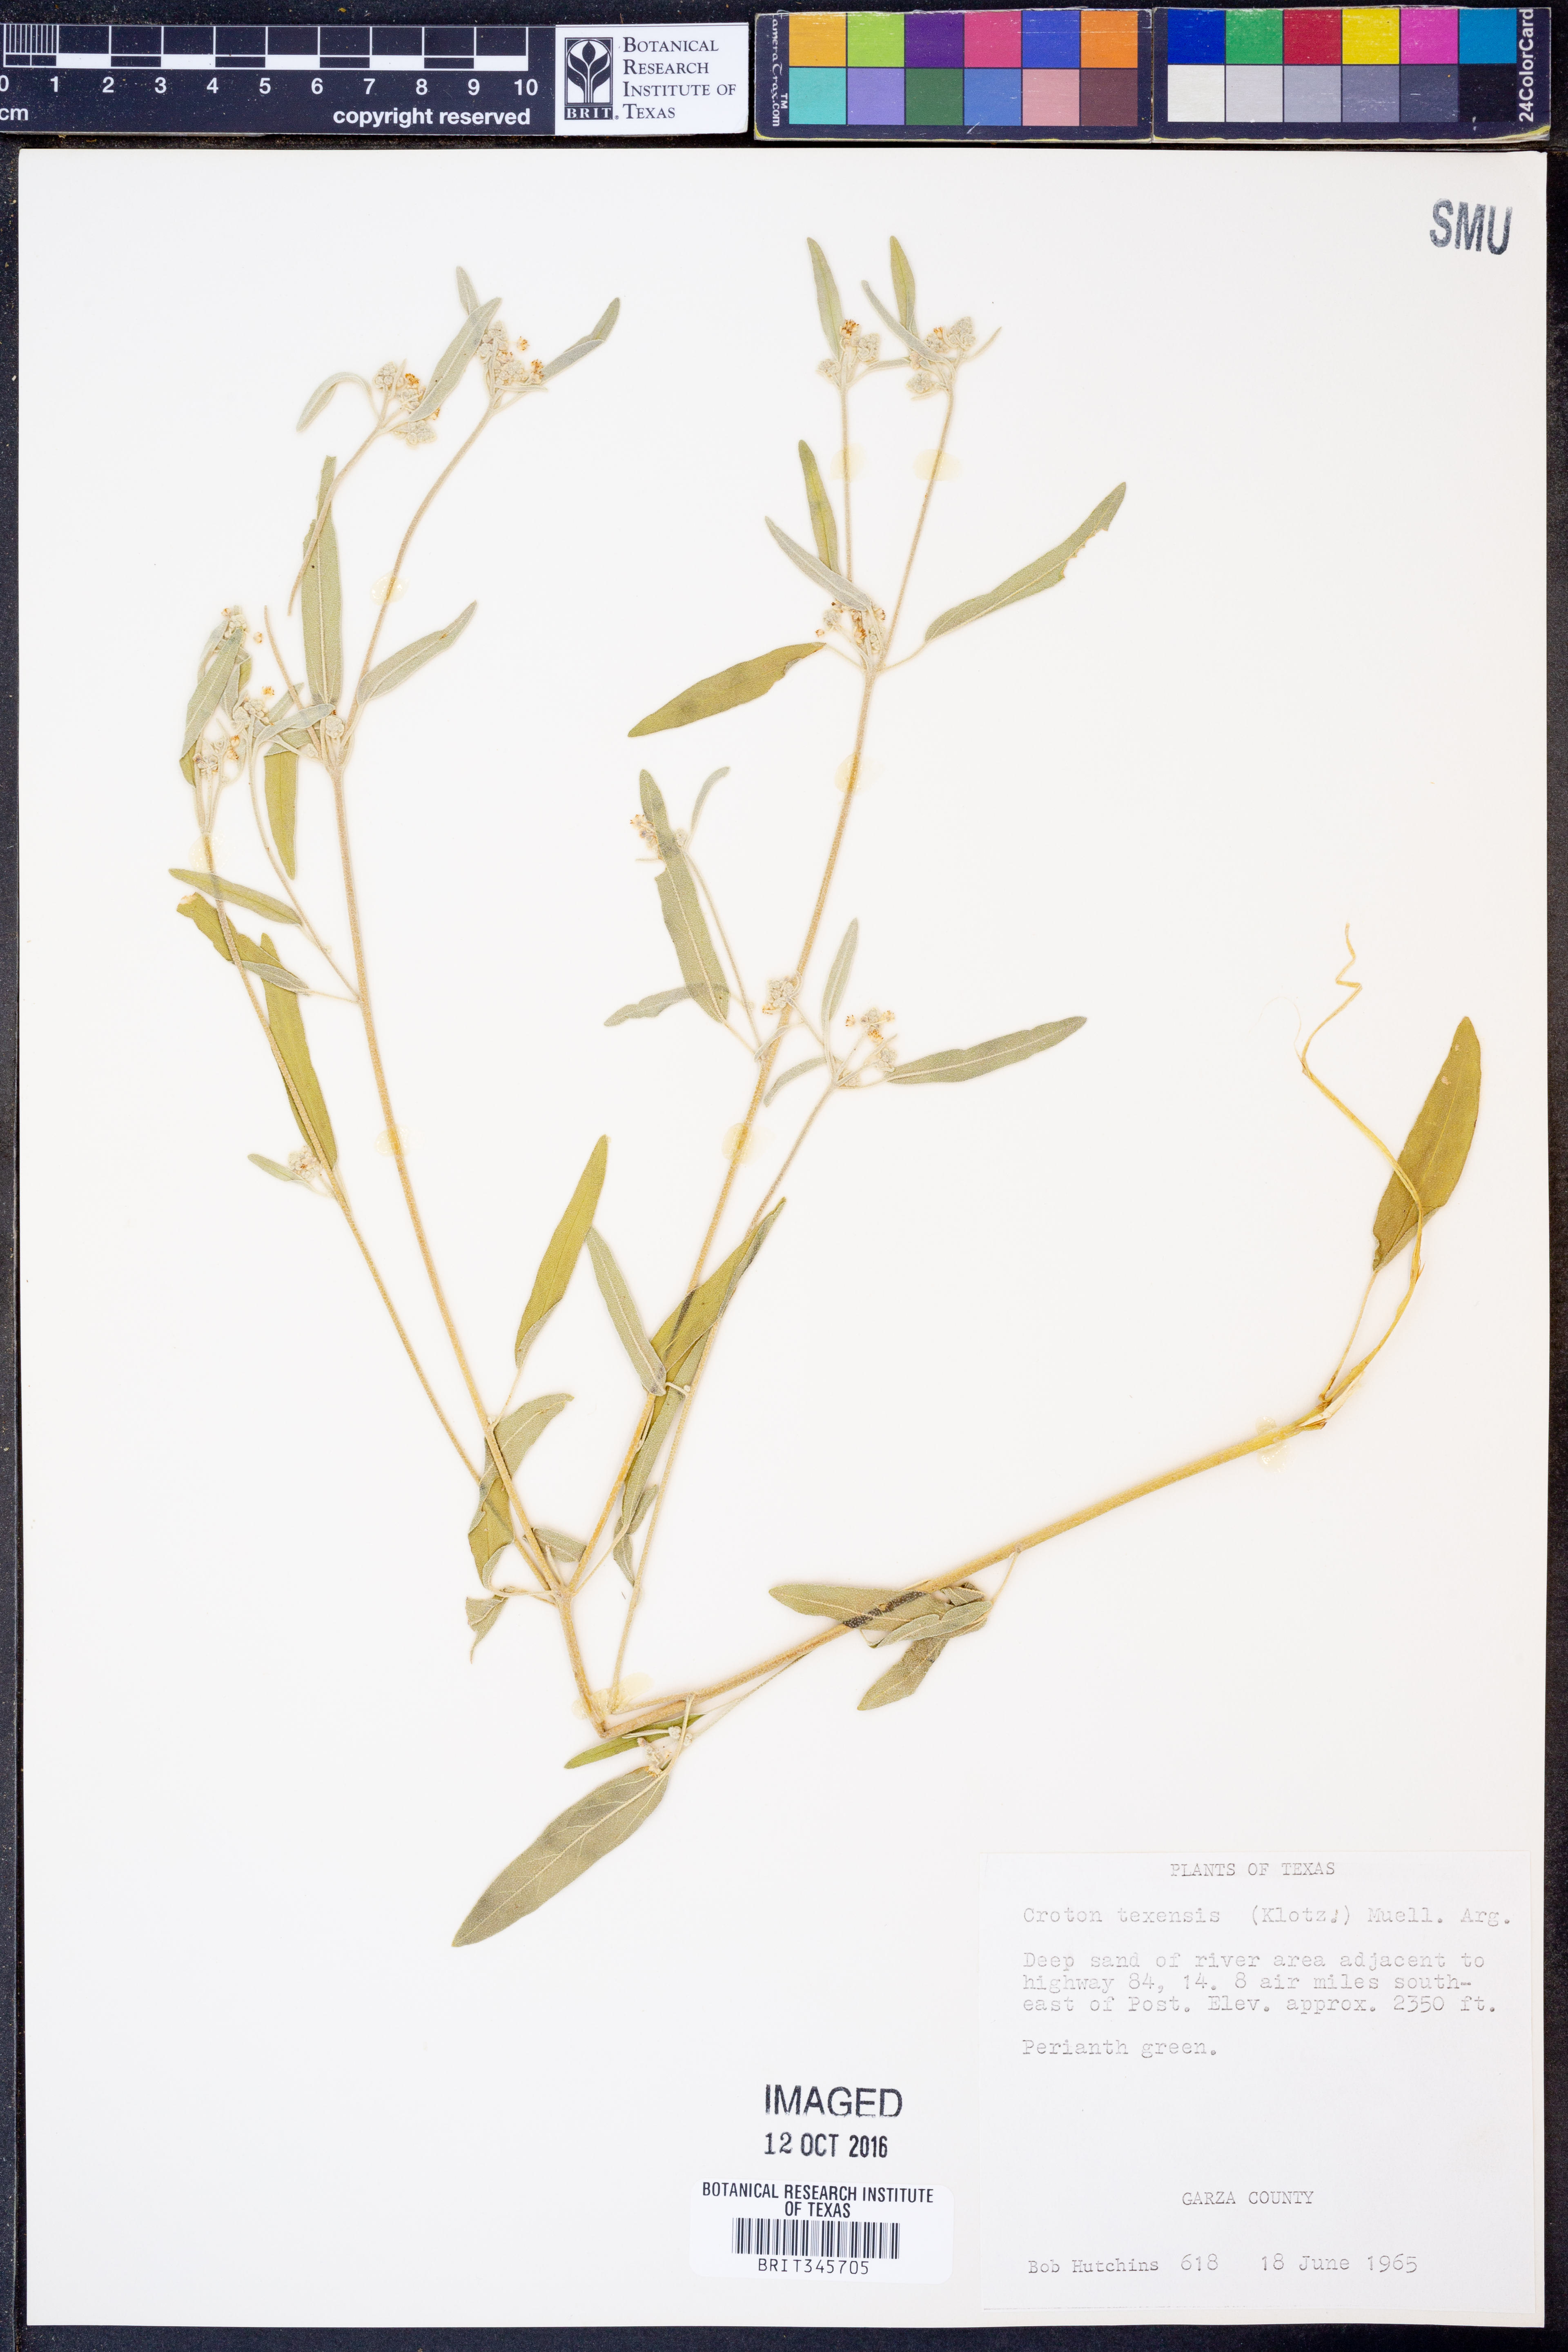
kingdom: Plantae
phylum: Tracheophyta
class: Magnoliopsida
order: Malpighiales
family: Euphorbiaceae
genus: Croton
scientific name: Croton texensis
